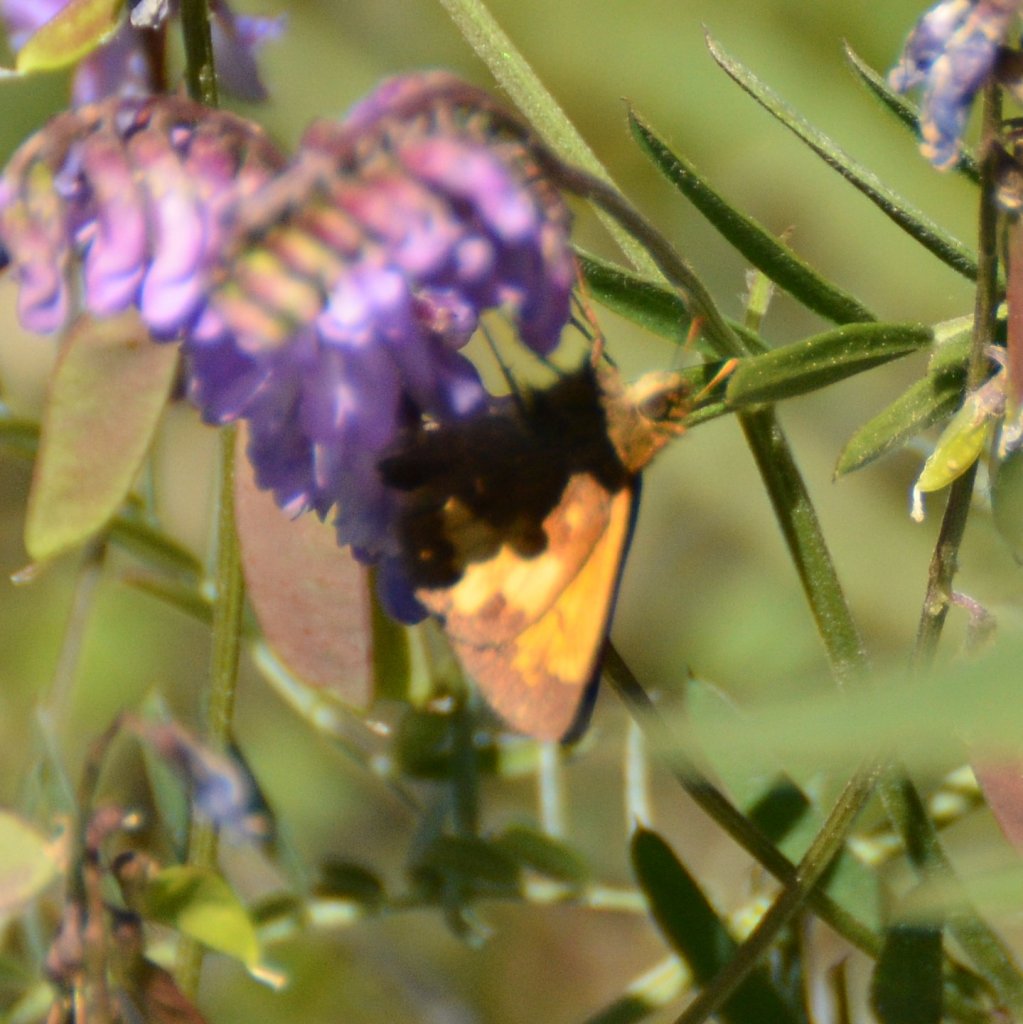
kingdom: Animalia
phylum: Arthropoda
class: Insecta
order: Lepidoptera
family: Hesperiidae
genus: Lon
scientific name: Lon hobomok
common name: Hobomok Skipper
